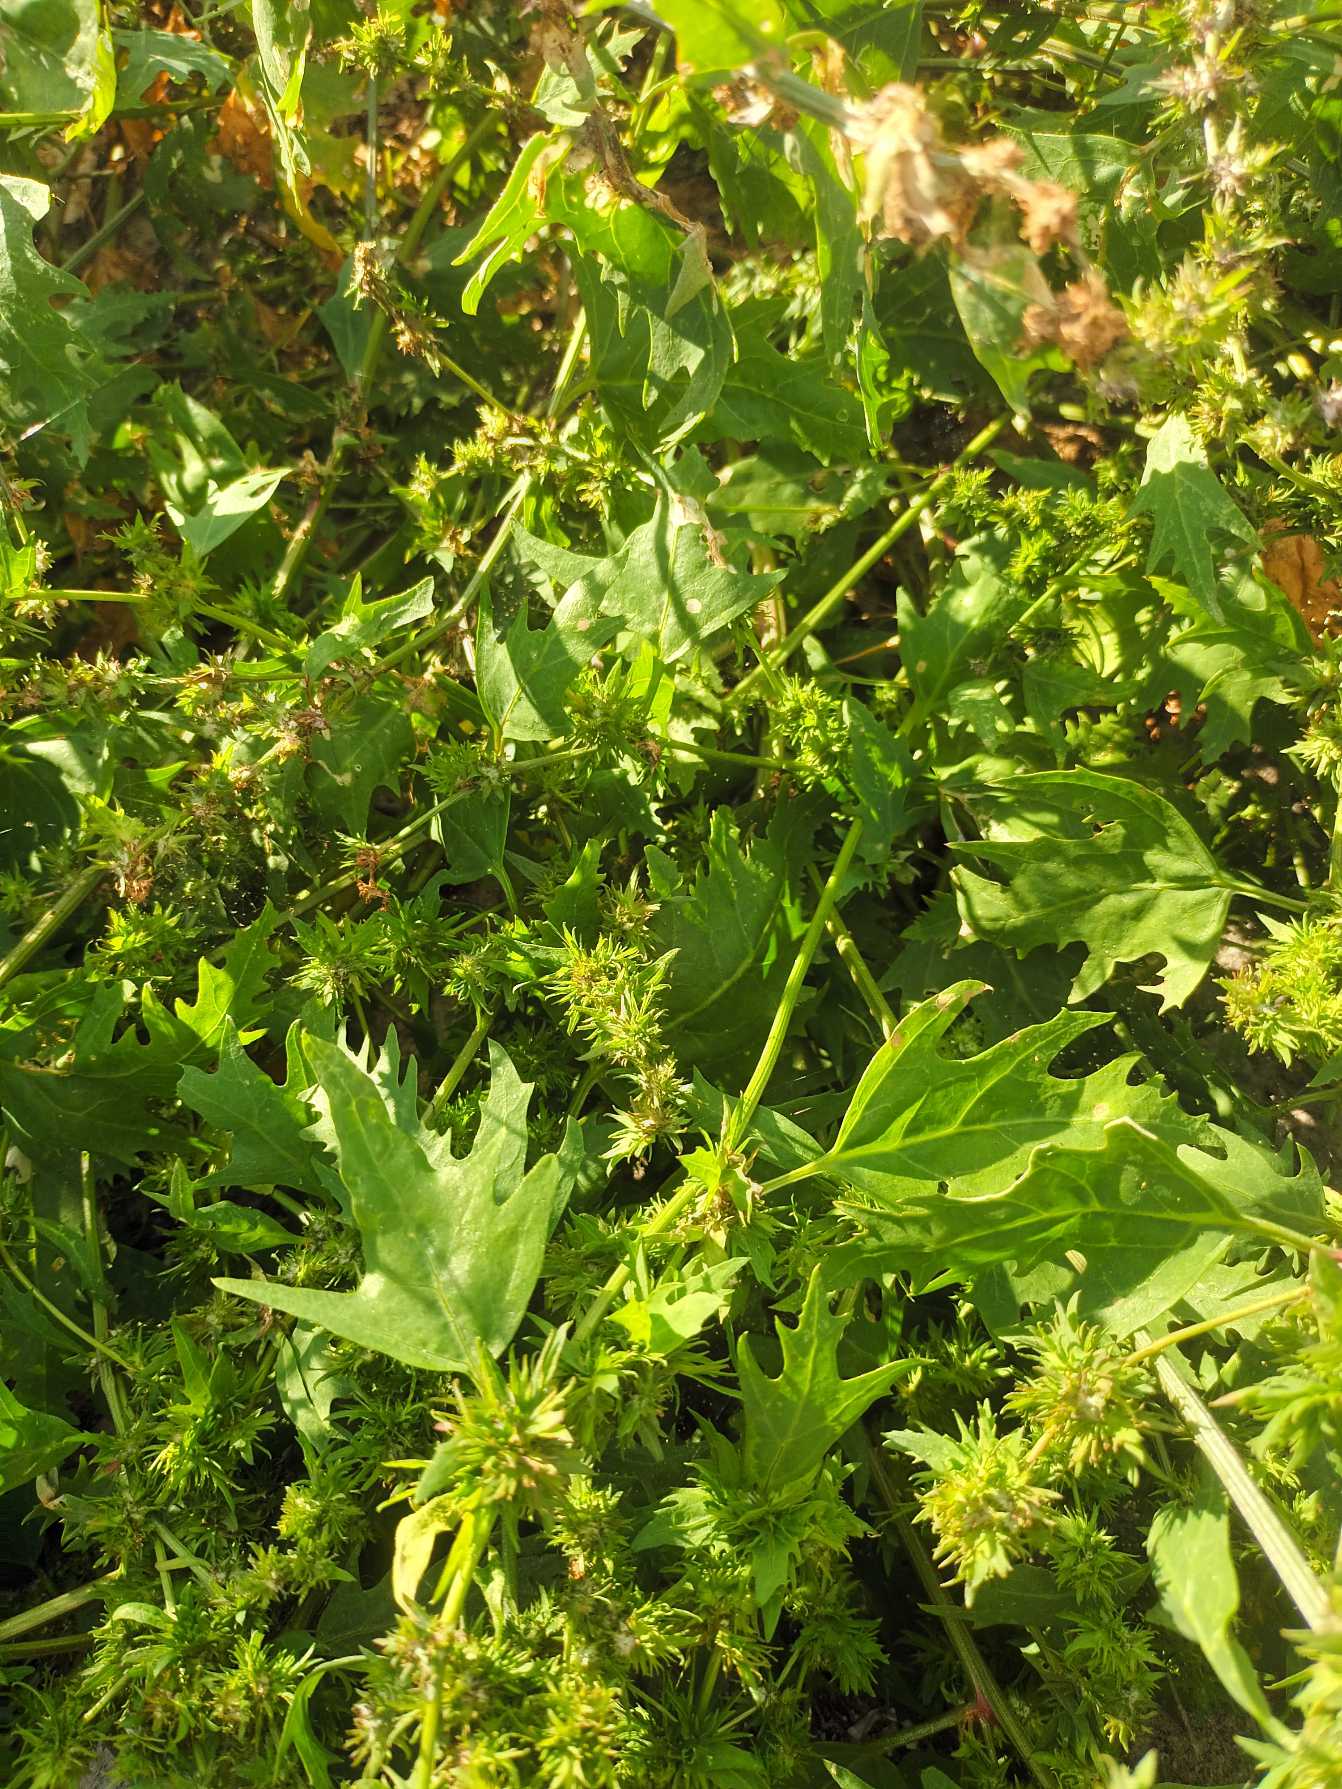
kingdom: Plantae
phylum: Tracheophyta
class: Magnoliopsida
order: Caryophyllales
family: Amaranthaceae
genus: Atriplex
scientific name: Atriplex calotheca
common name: Skønbægret mælde
